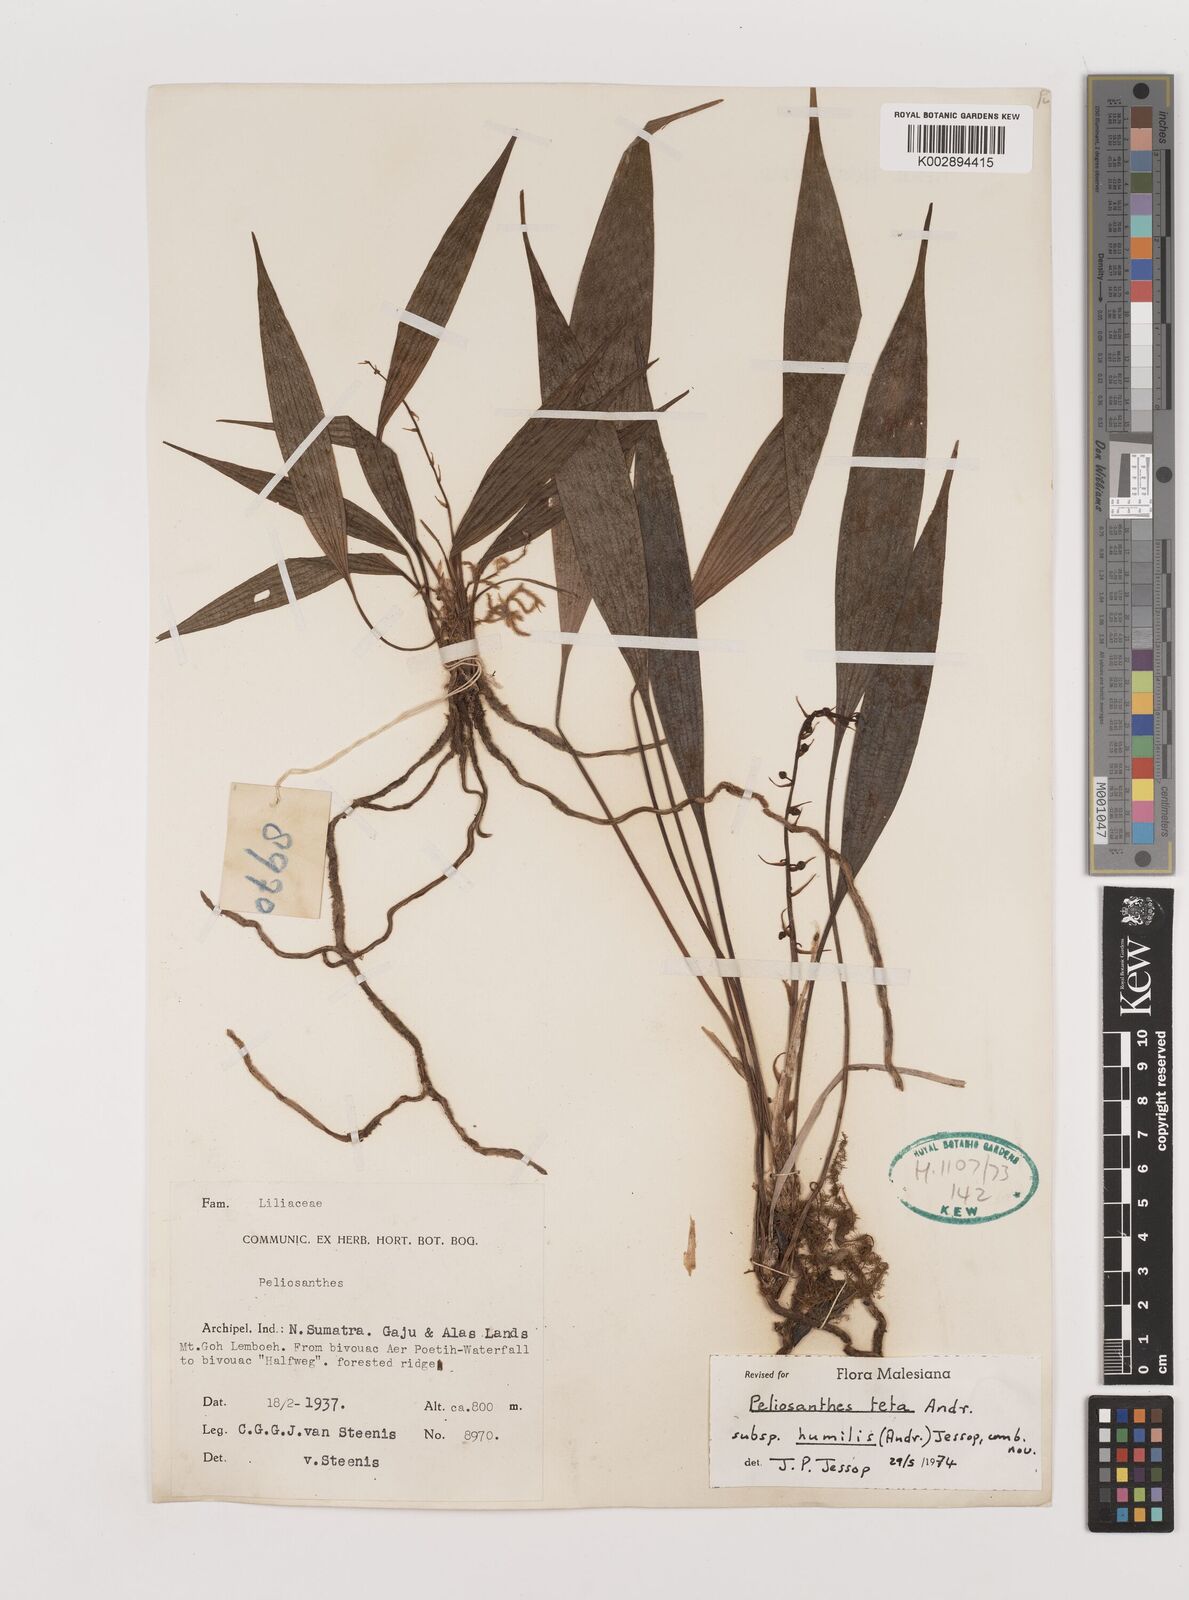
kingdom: Plantae
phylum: Tracheophyta
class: Liliopsida
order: Asparagales
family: Asparagaceae
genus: Peliosanthes
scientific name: Peliosanthes teta
